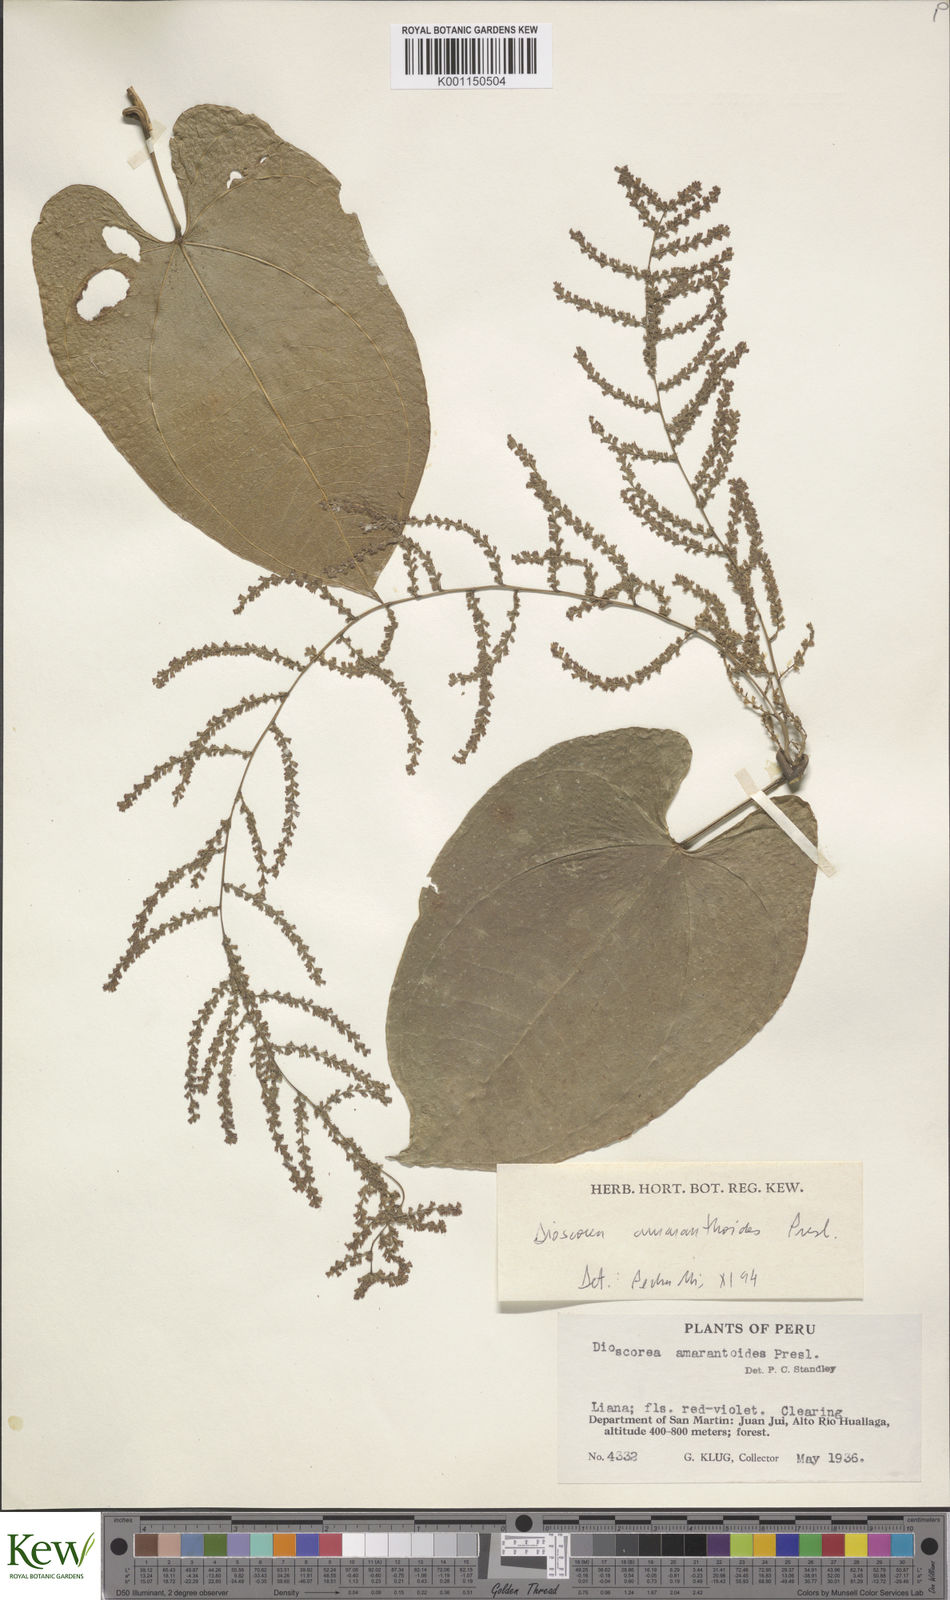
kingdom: Plantae
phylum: Tracheophyta
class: Liliopsida
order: Dioscoreales
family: Dioscoreaceae
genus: Dioscorea
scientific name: Dioscorea amaranthoides
